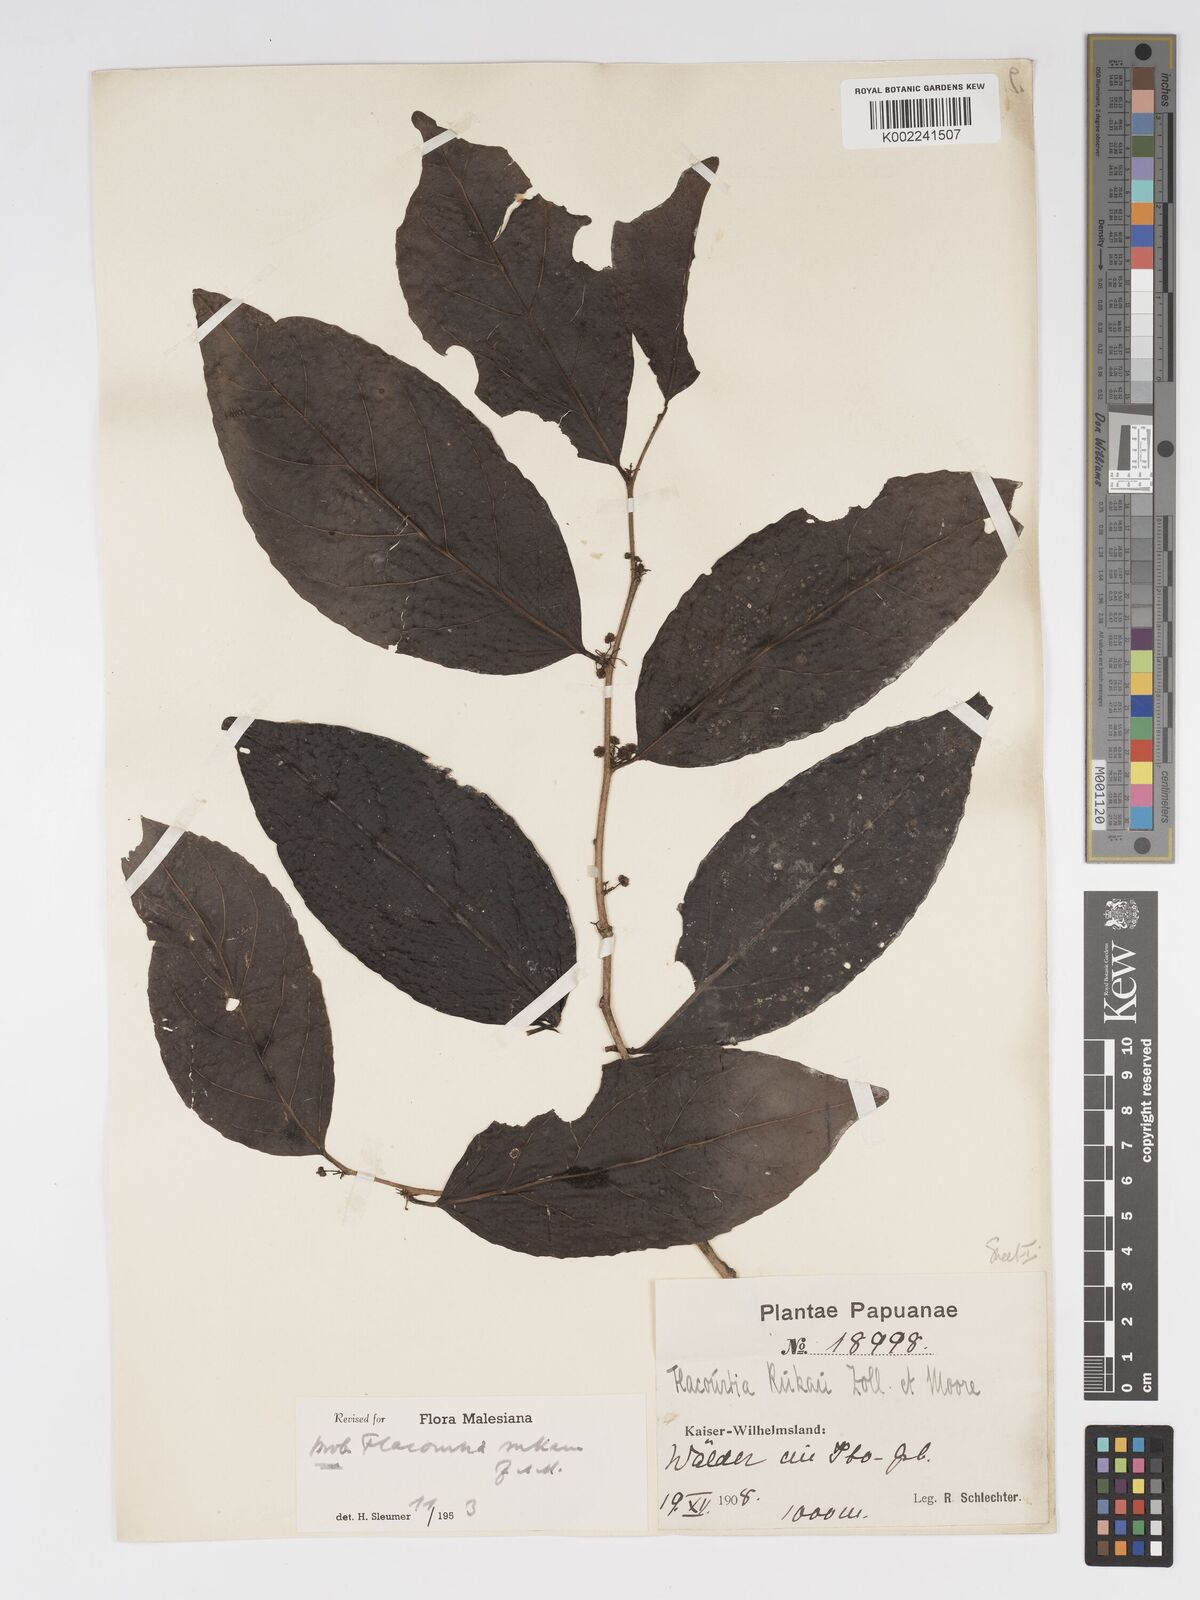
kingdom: Plantae
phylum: Tracheophyta
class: Magnoliopsida
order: Malpighiales
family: Salicaceae
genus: Flacourtia
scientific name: Flacourtia rukam
